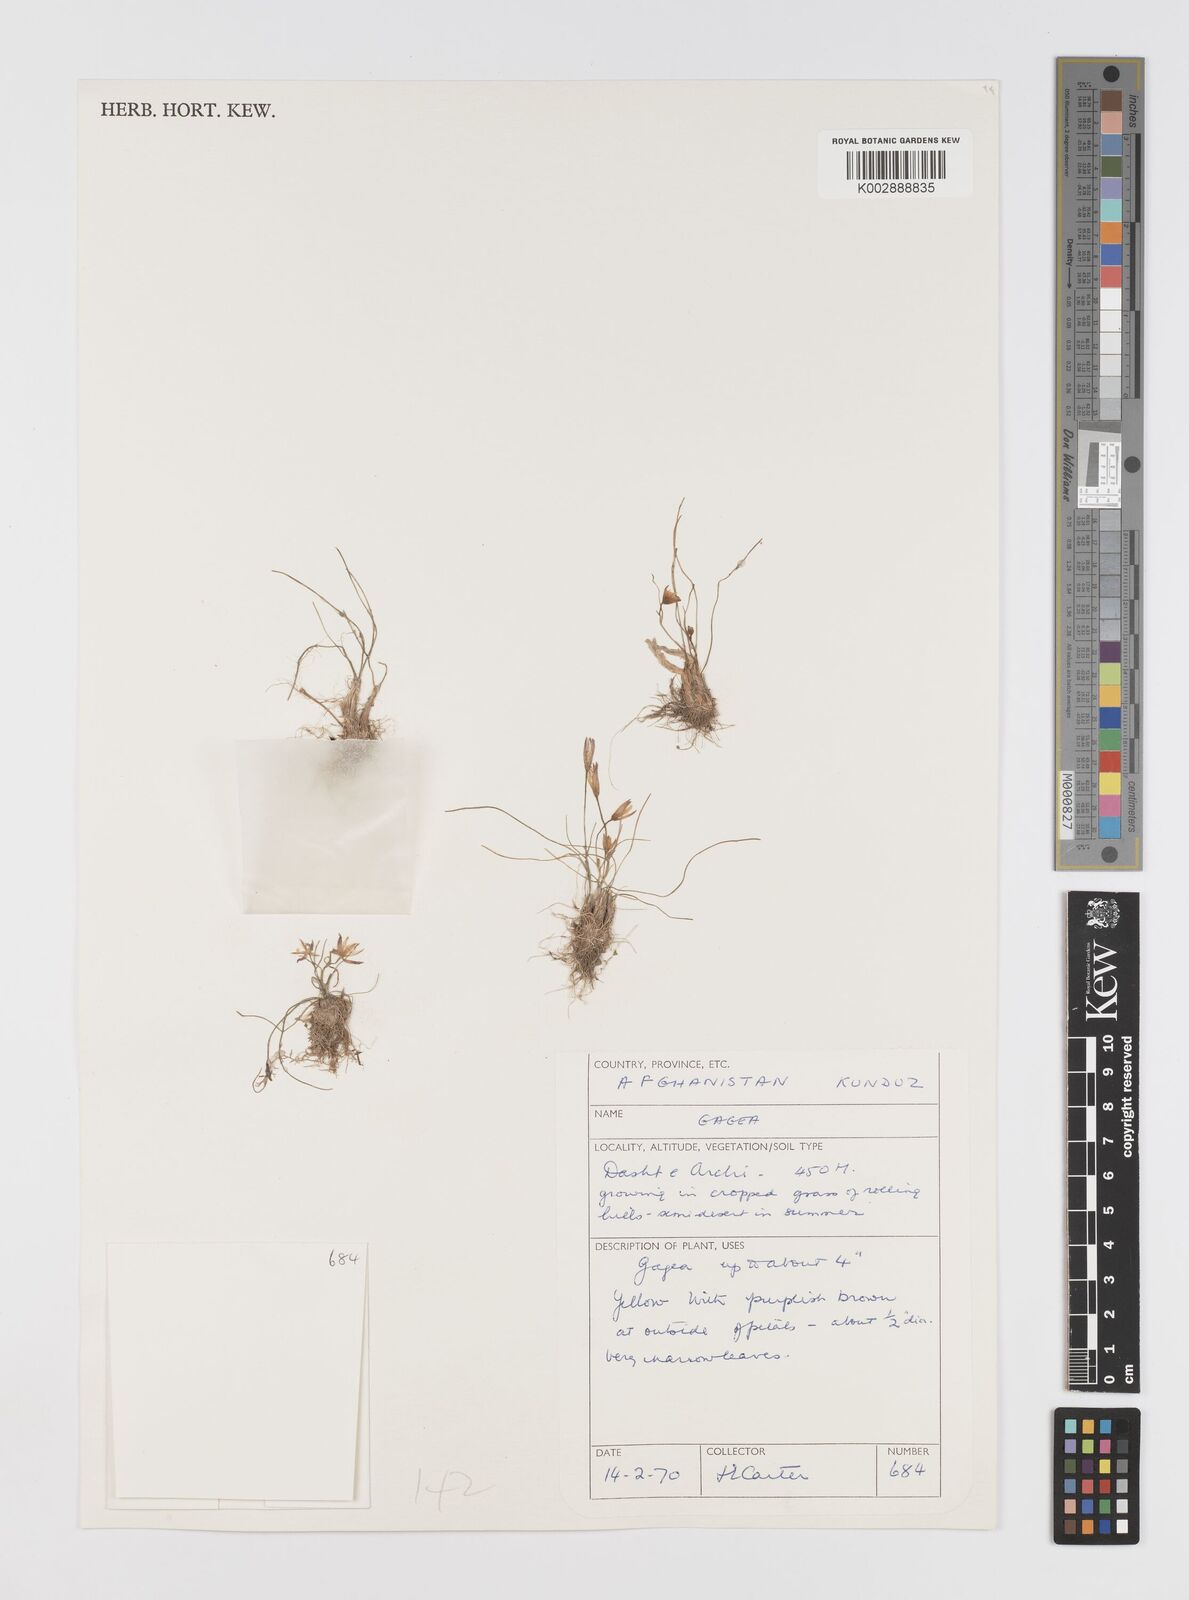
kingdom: Plantae
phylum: Tracheophyta
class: Liliopsida
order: Liliales
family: Liliaceae
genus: Gagea
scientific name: Gagea
